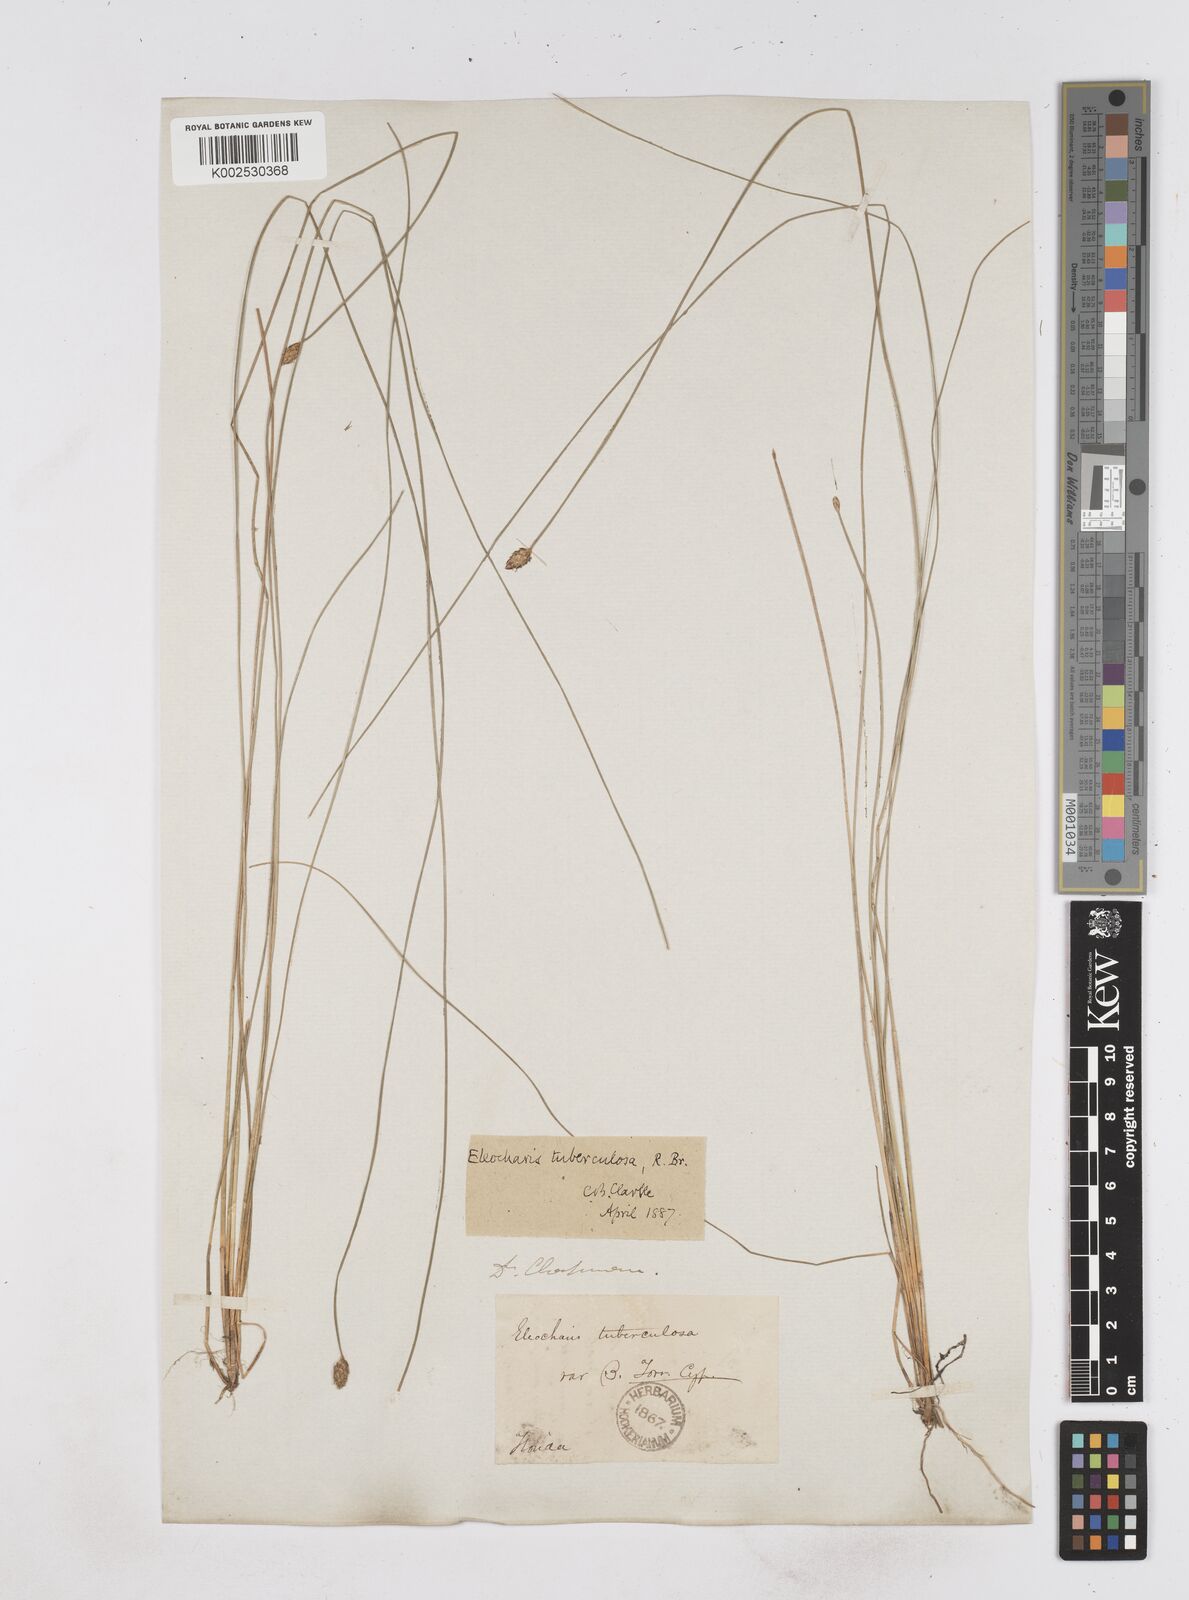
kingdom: Plantae
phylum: Tracheophyta
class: Liliopsida
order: Poales
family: Cyperaceae
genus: Eleocharis
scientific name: Eleocharis tuberculosa
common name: Cone-cup spikerush
